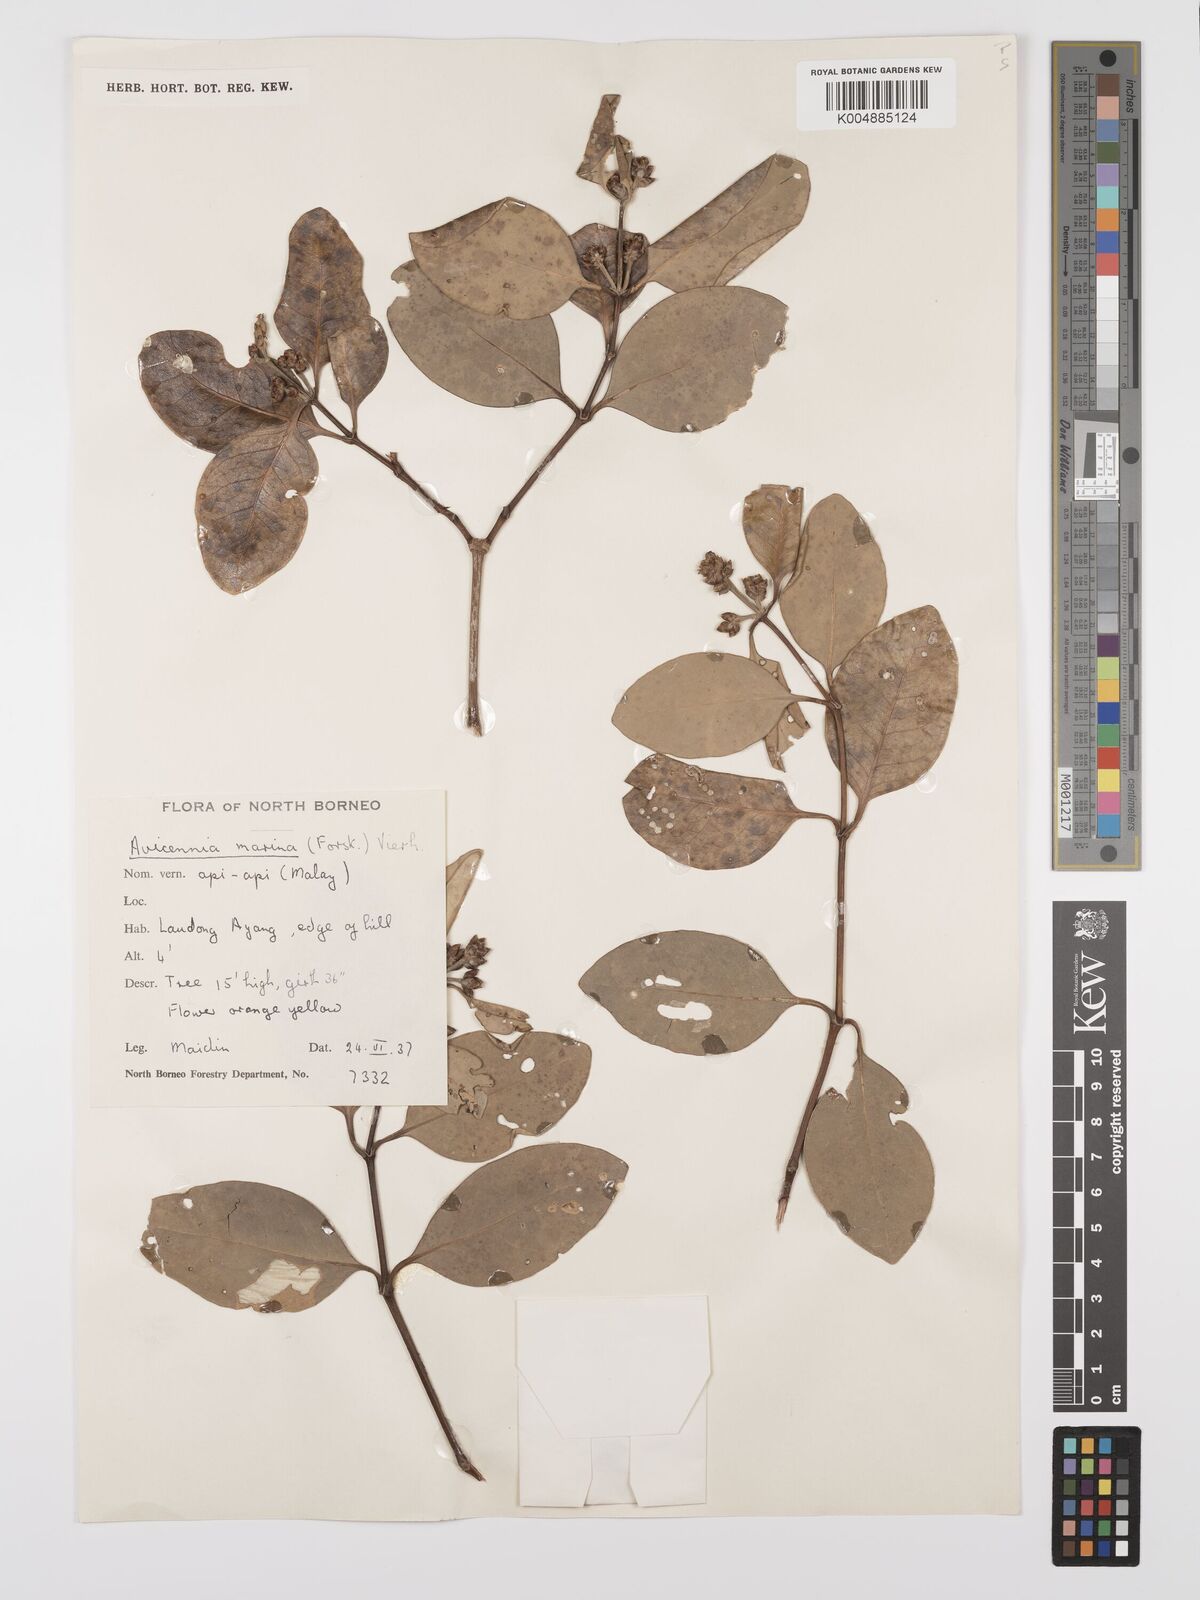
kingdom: Plantae
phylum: Tracheophyta
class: Magnoliopsida
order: Lamiales
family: Acanthaceae
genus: Avicennia
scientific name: Avicennia marina
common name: Gray mangrove
